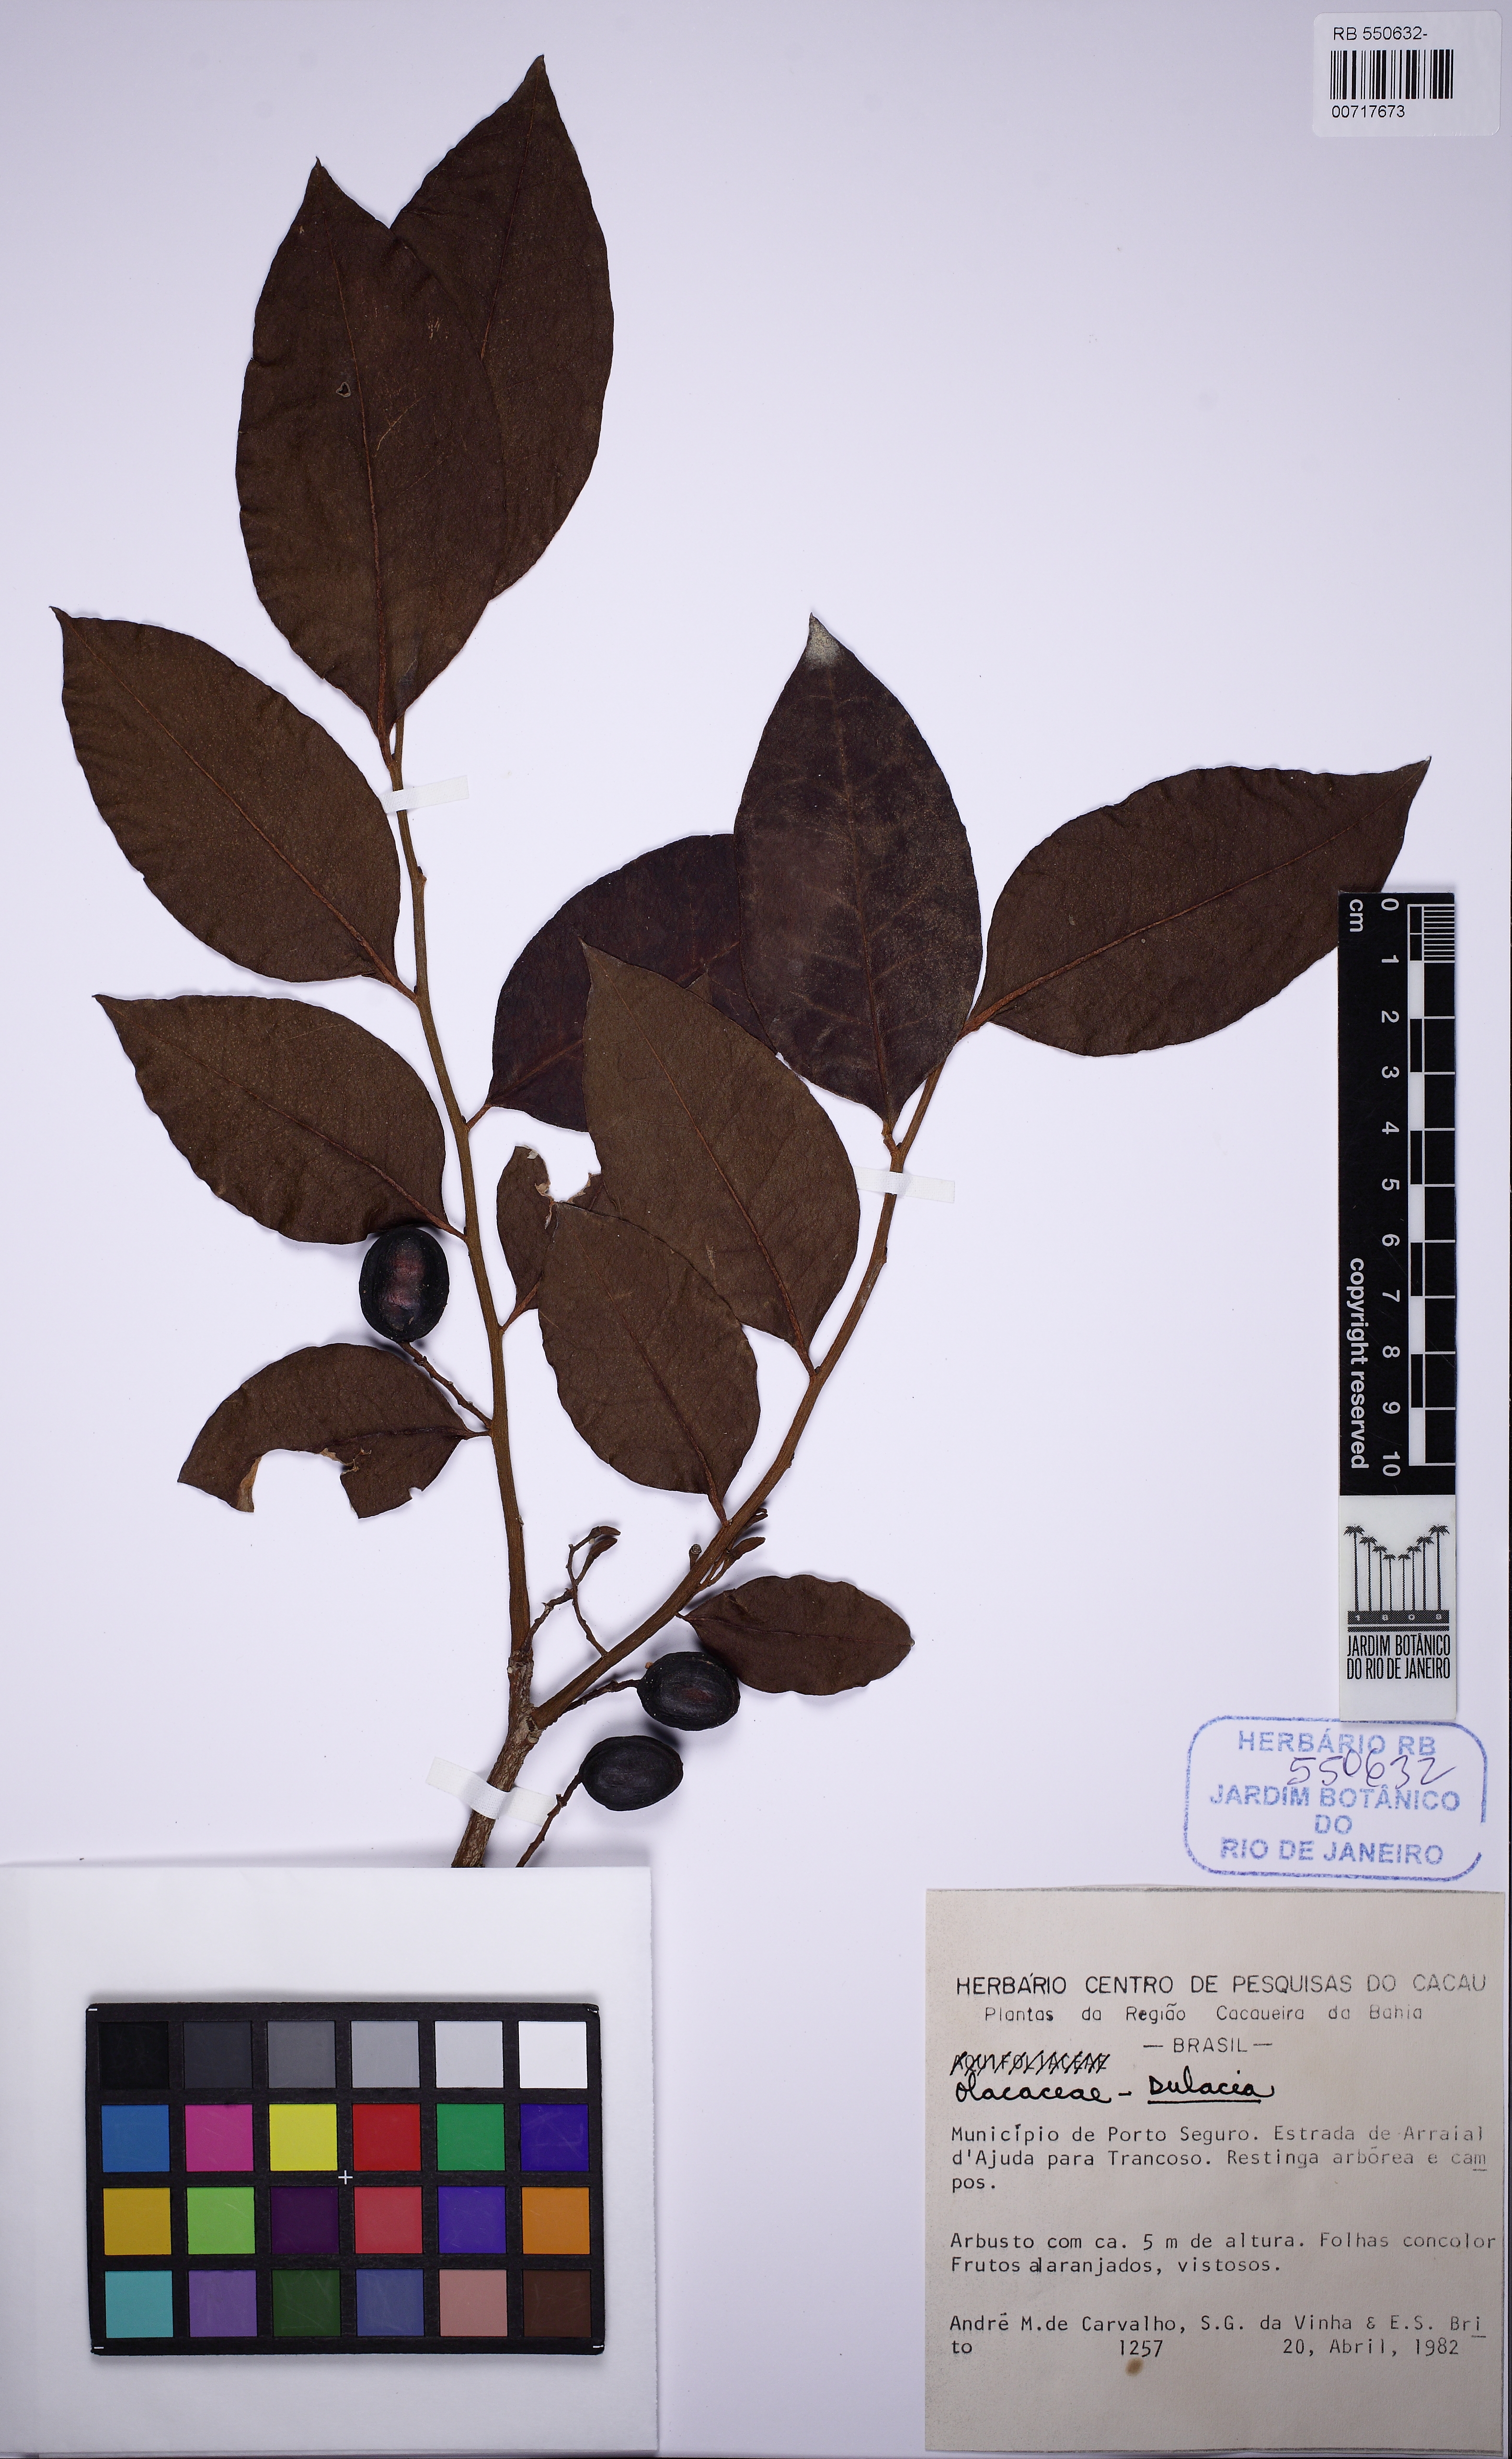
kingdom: Plantae
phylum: Tracheophyta
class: Magnoliopsida
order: Santalales
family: Olacaceae
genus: Dulacia
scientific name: Dulacia
